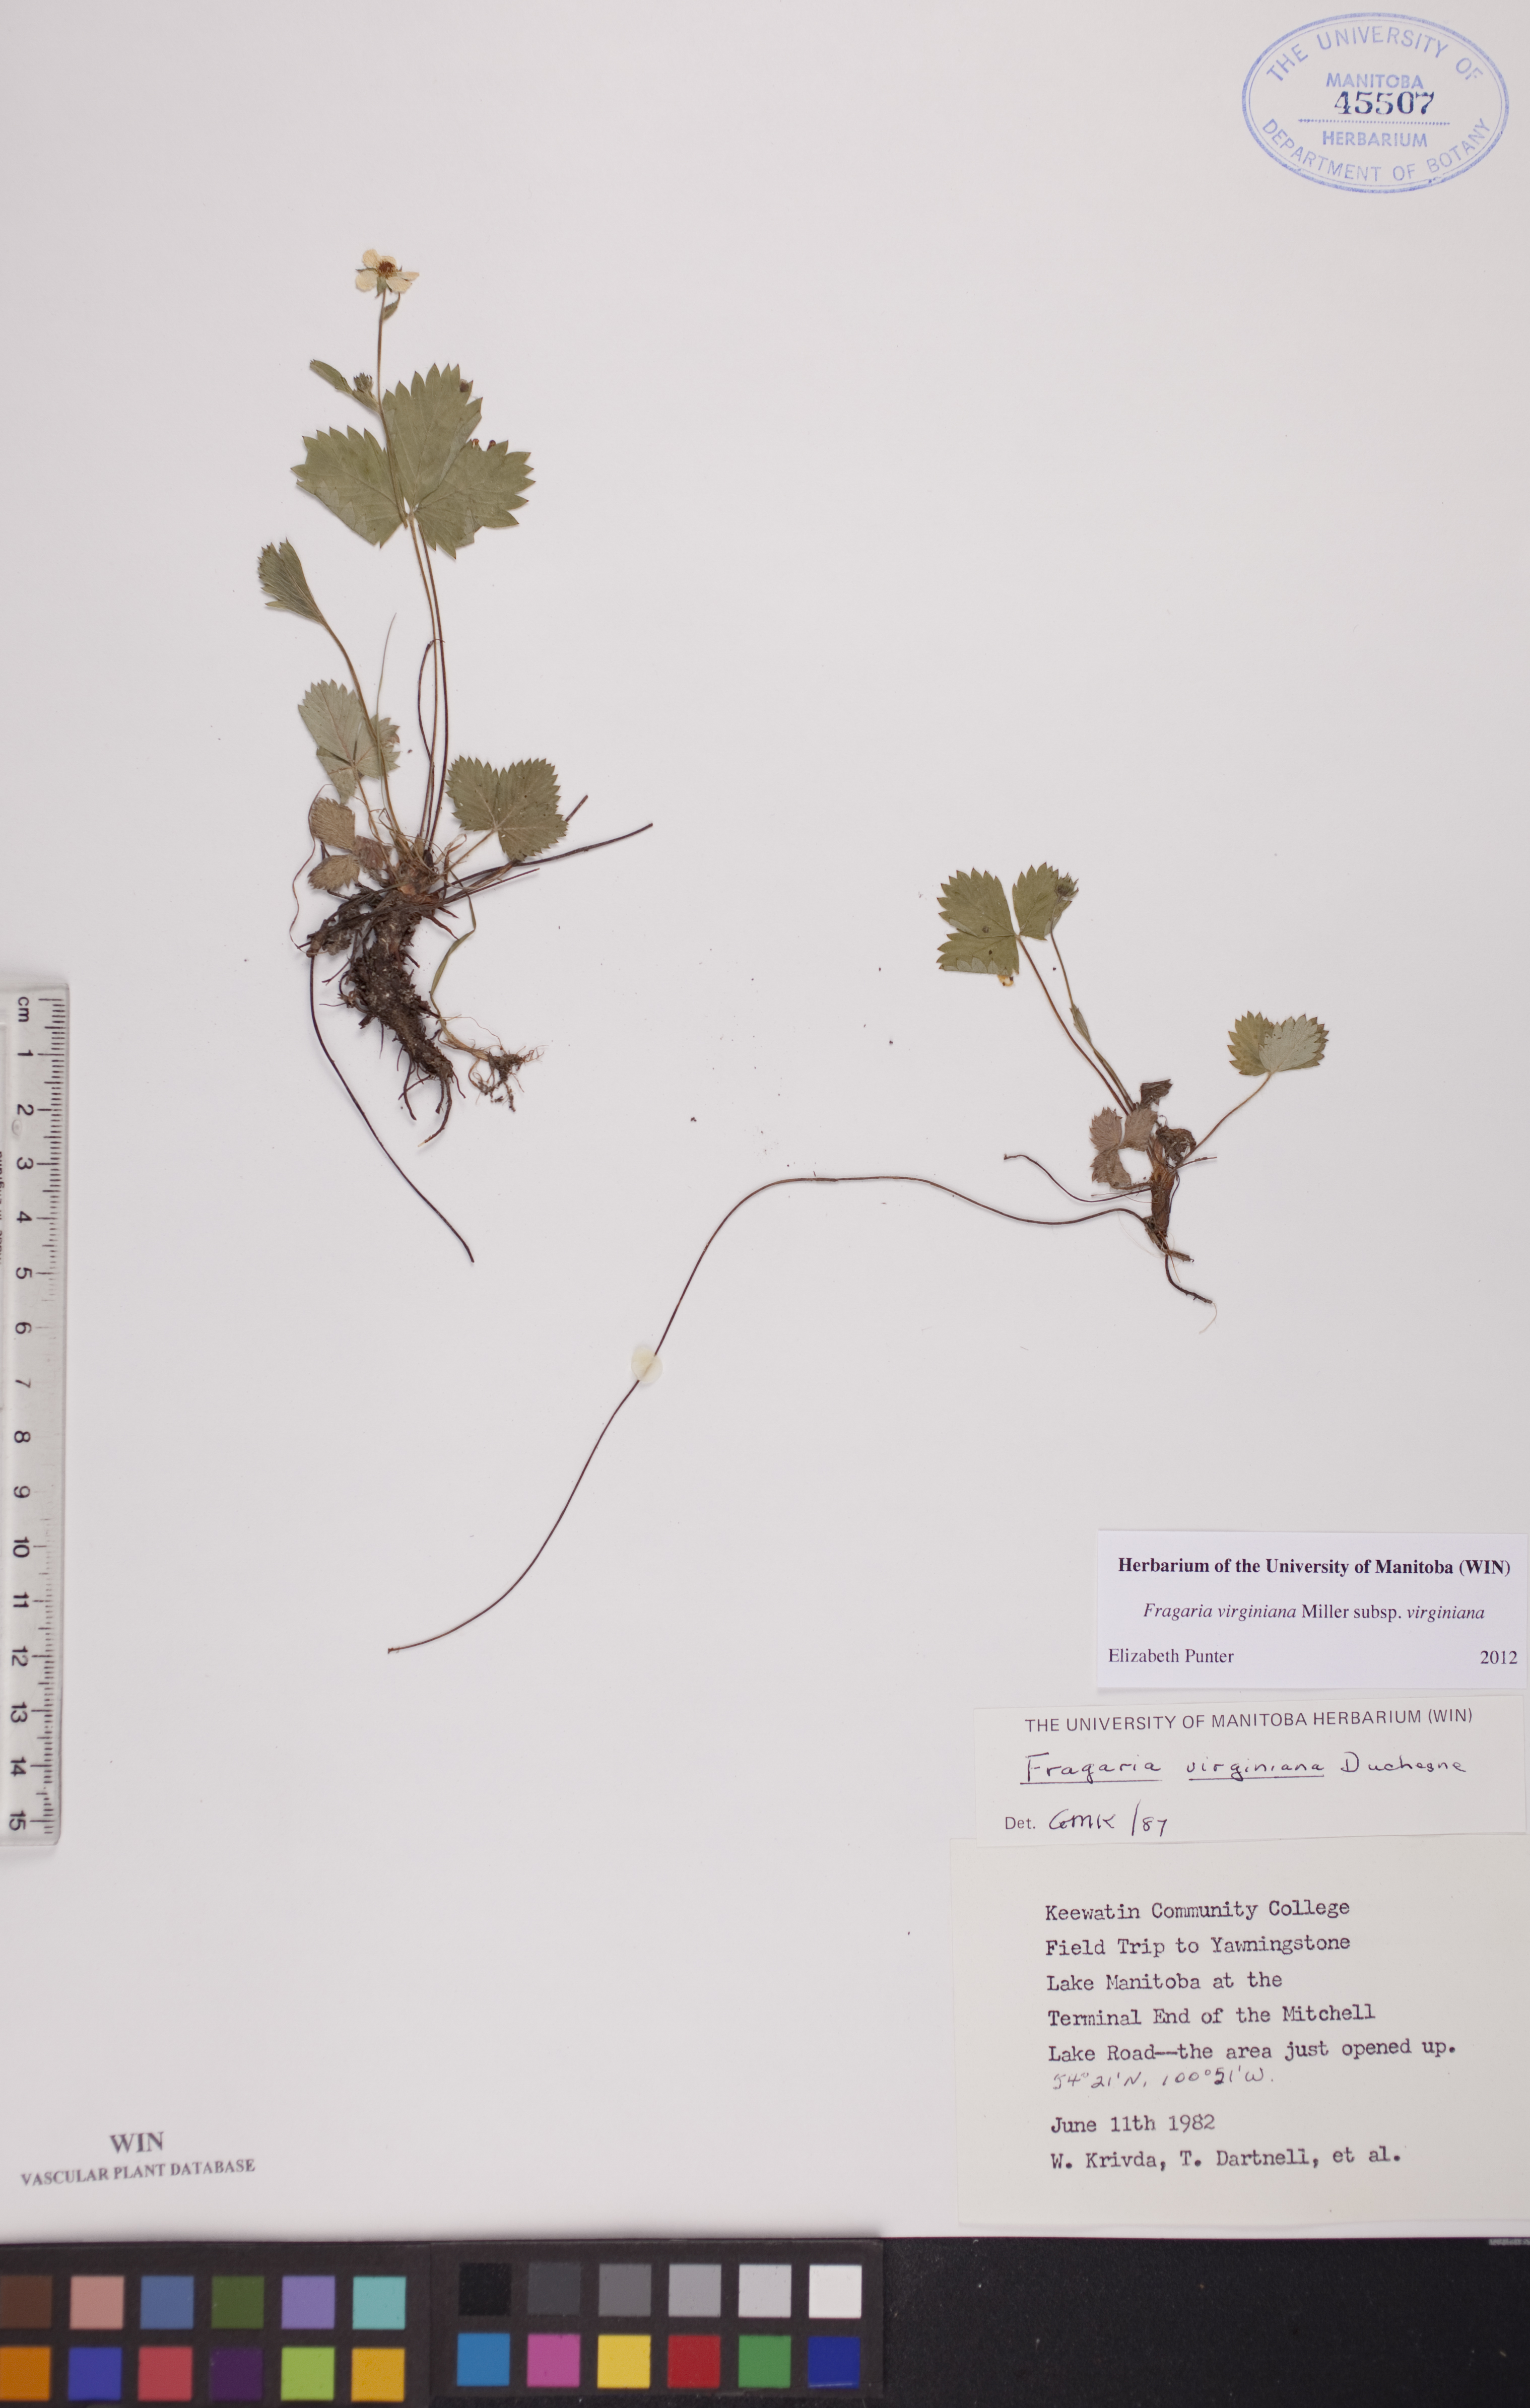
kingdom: Plantae
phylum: Tracheophyta
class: Magnoliopsida
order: Rosales
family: Rosaceae
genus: Fragaria
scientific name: Fragaria virginiana
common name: Thickleaved wild strawberry
